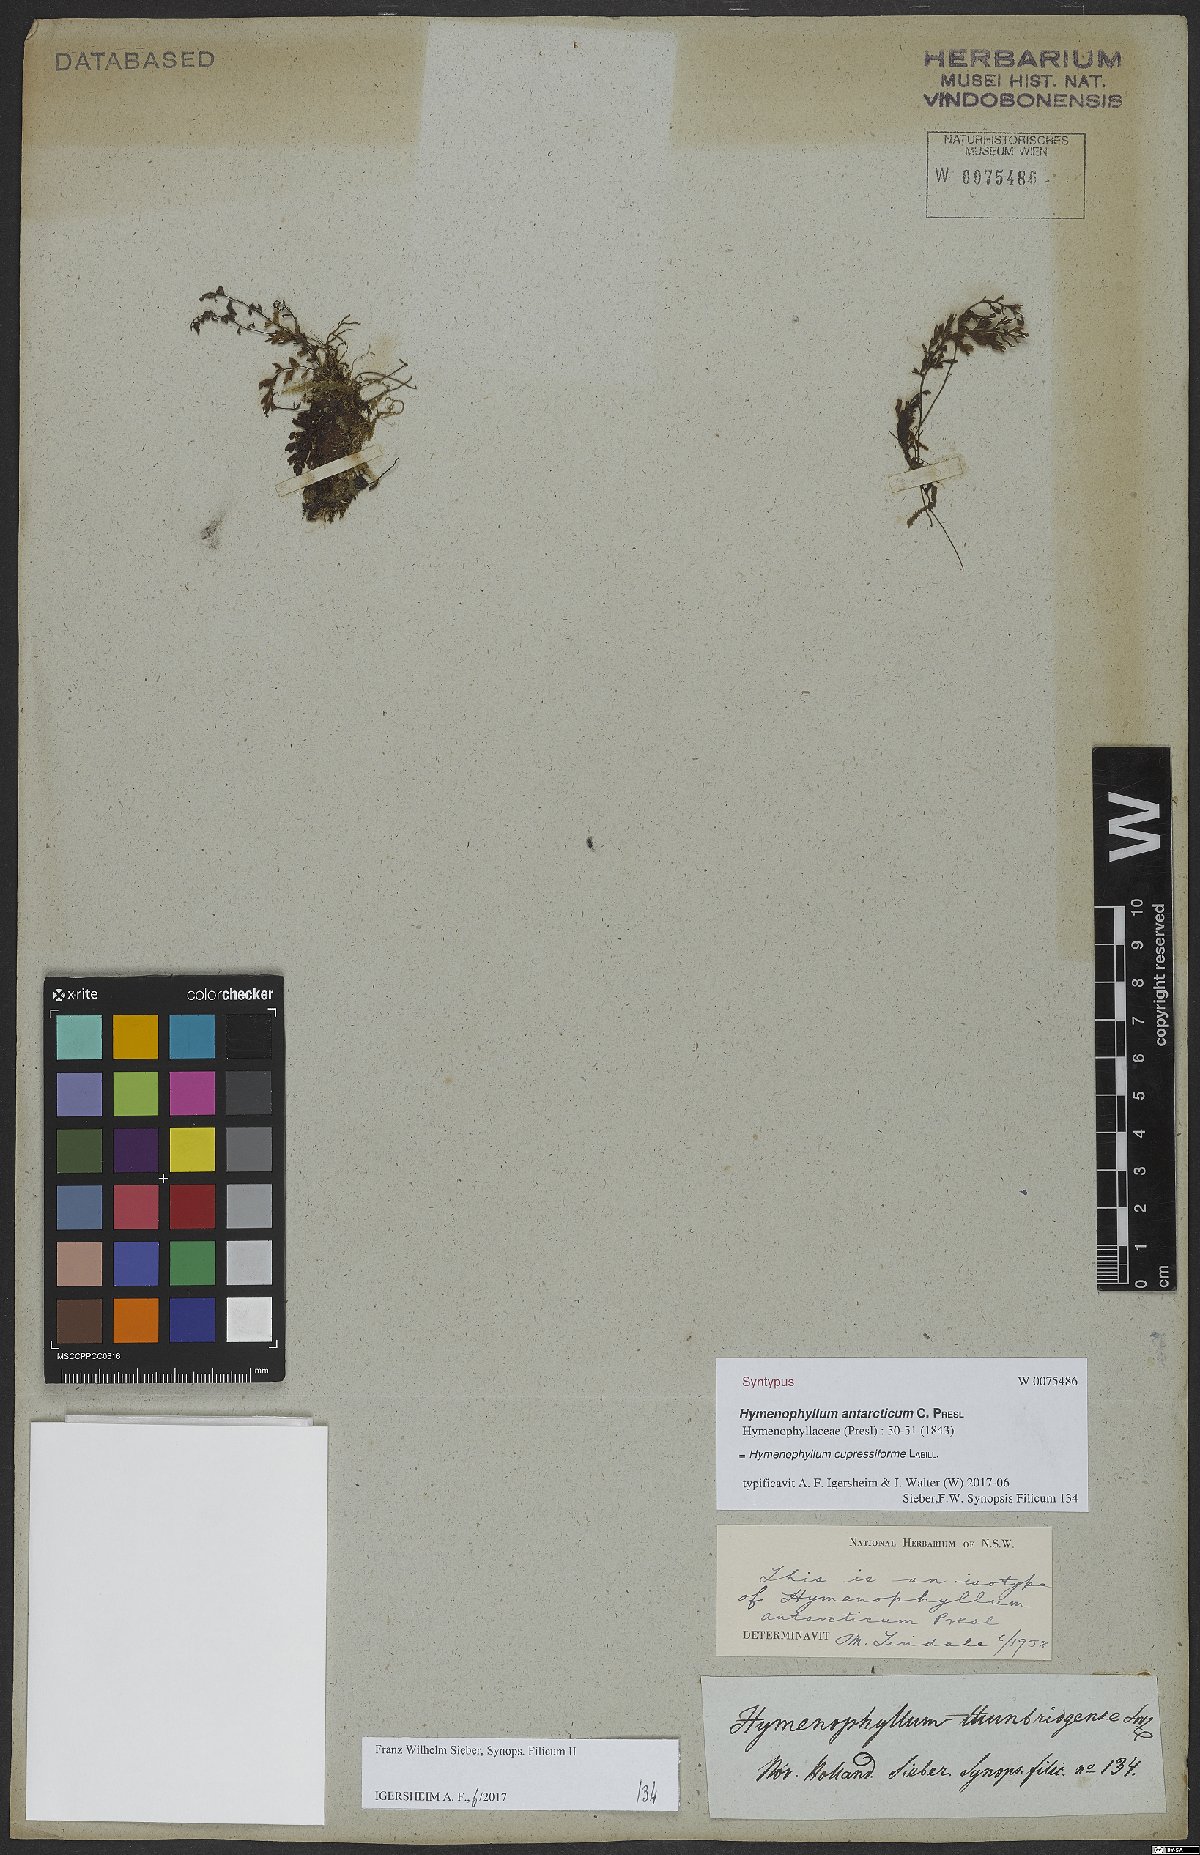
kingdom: Plantae
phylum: Tracheophyta
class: Polypodiopsida
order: Hymenophyllales
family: Hymenophyllaceae
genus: Hymenophyllum
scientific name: Hymenophyllum cupressiforme
